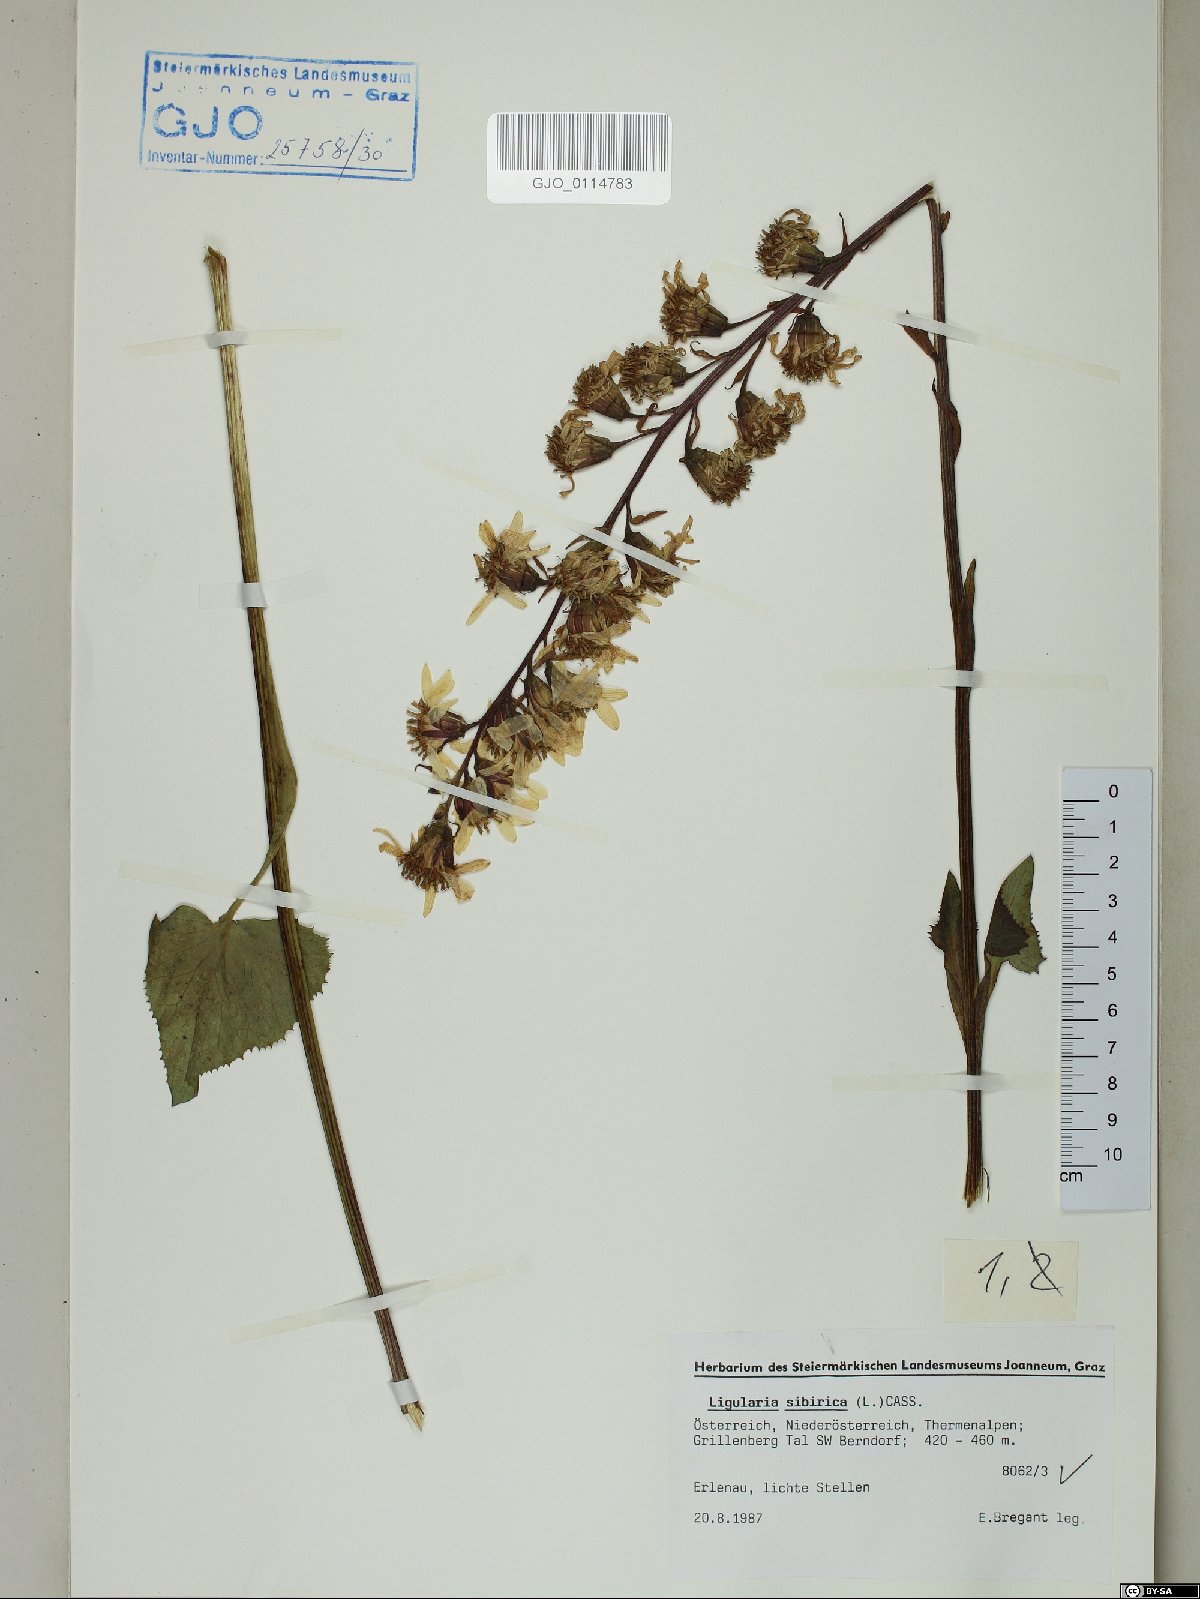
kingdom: Plantae
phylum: Tracheophyta
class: Magnoliopsida
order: Asterales
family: Asteraceae
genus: Ligularia
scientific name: Ligularia sibirica
